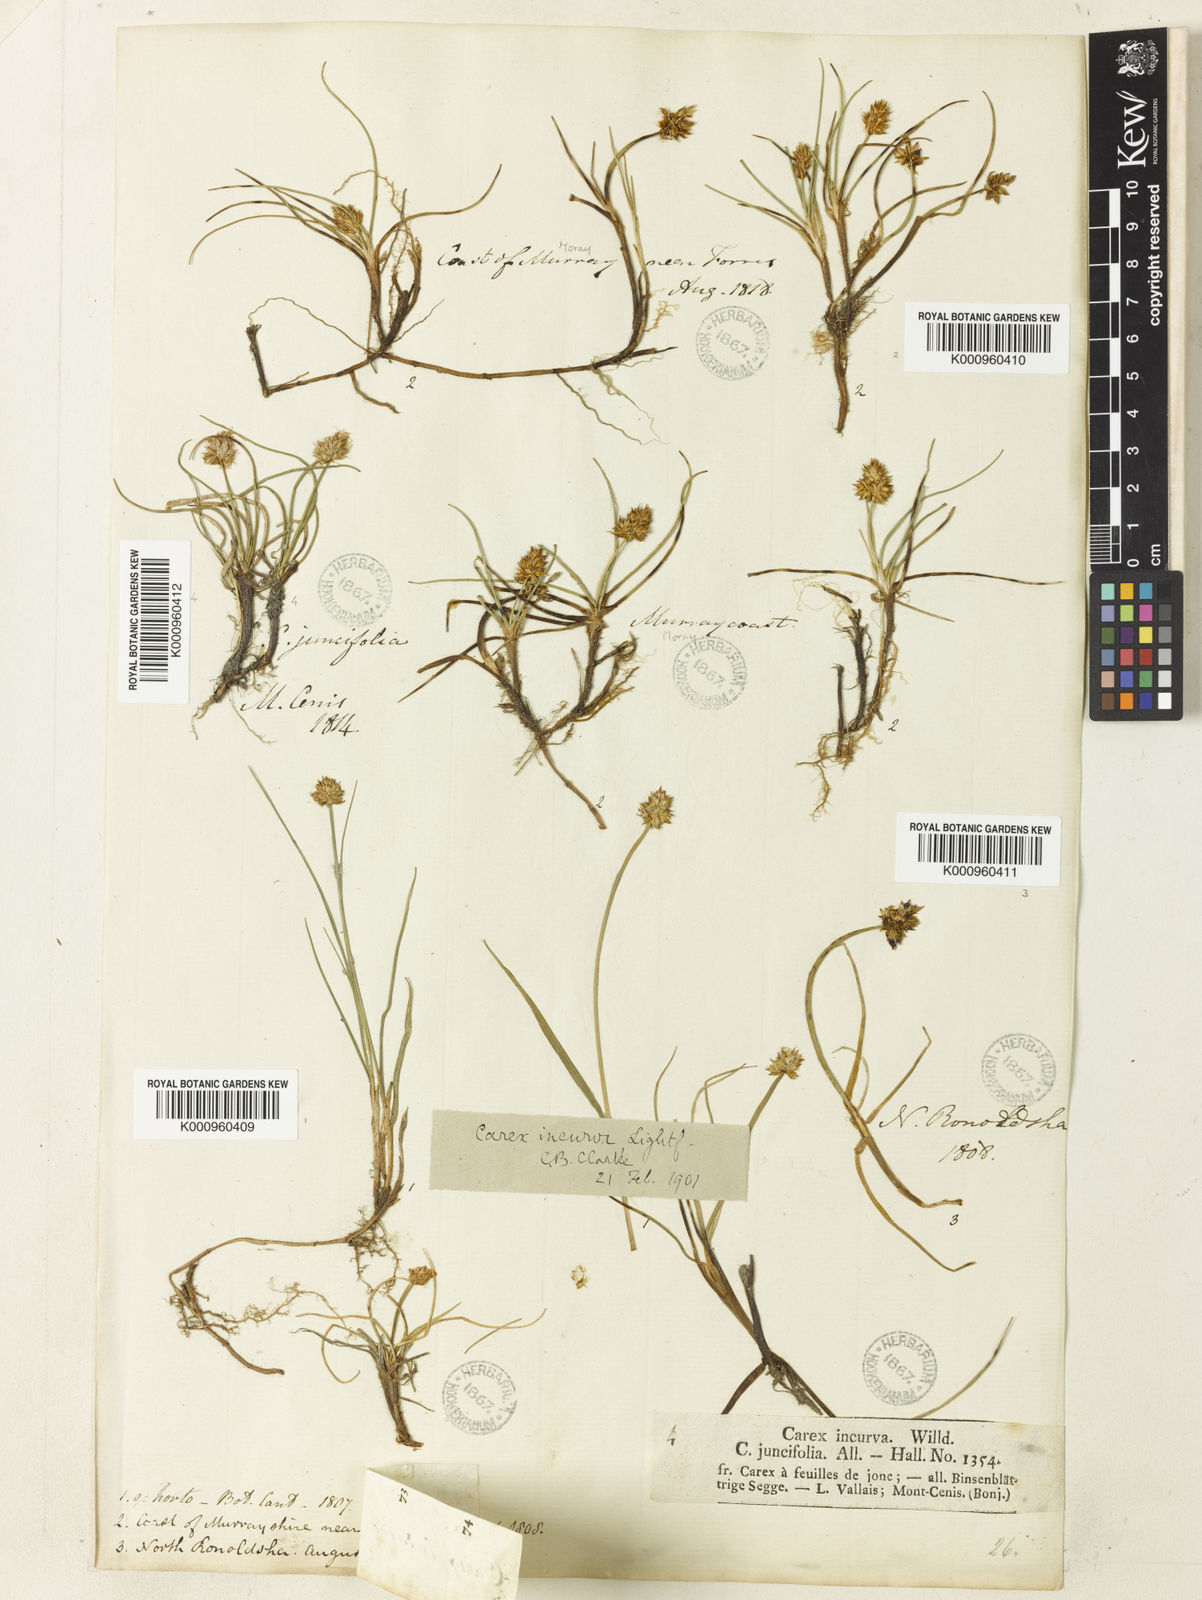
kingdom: Plantae
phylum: Tracheophyta
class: Liliopsida
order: Poales
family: Cyperaceae
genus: Carex
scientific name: Carex maritima
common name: Curved sedge
